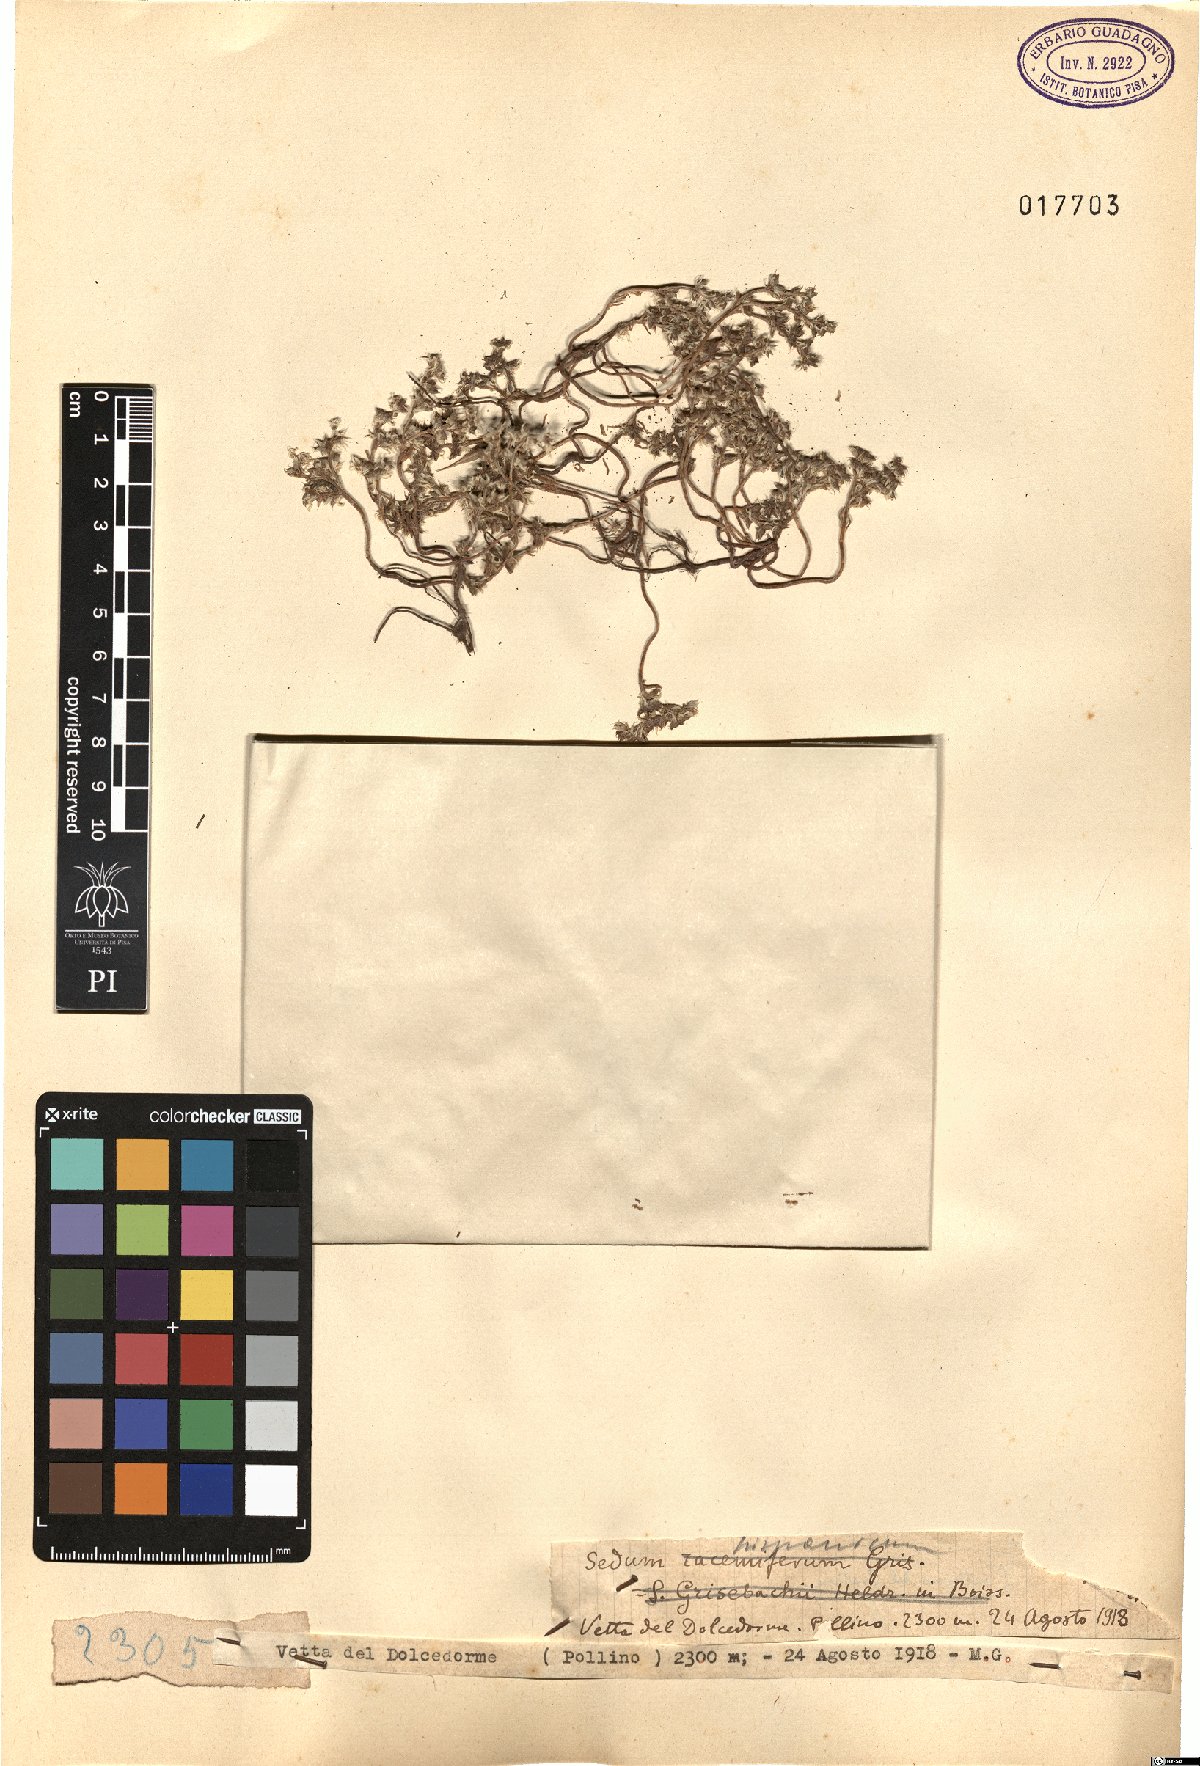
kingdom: Plantae
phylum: Tracheophyta
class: Magnoliopsida
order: Saxifragales
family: Crassulaceae
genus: Sedum
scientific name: Sedum hispanicum
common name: Spanish stonecrop
